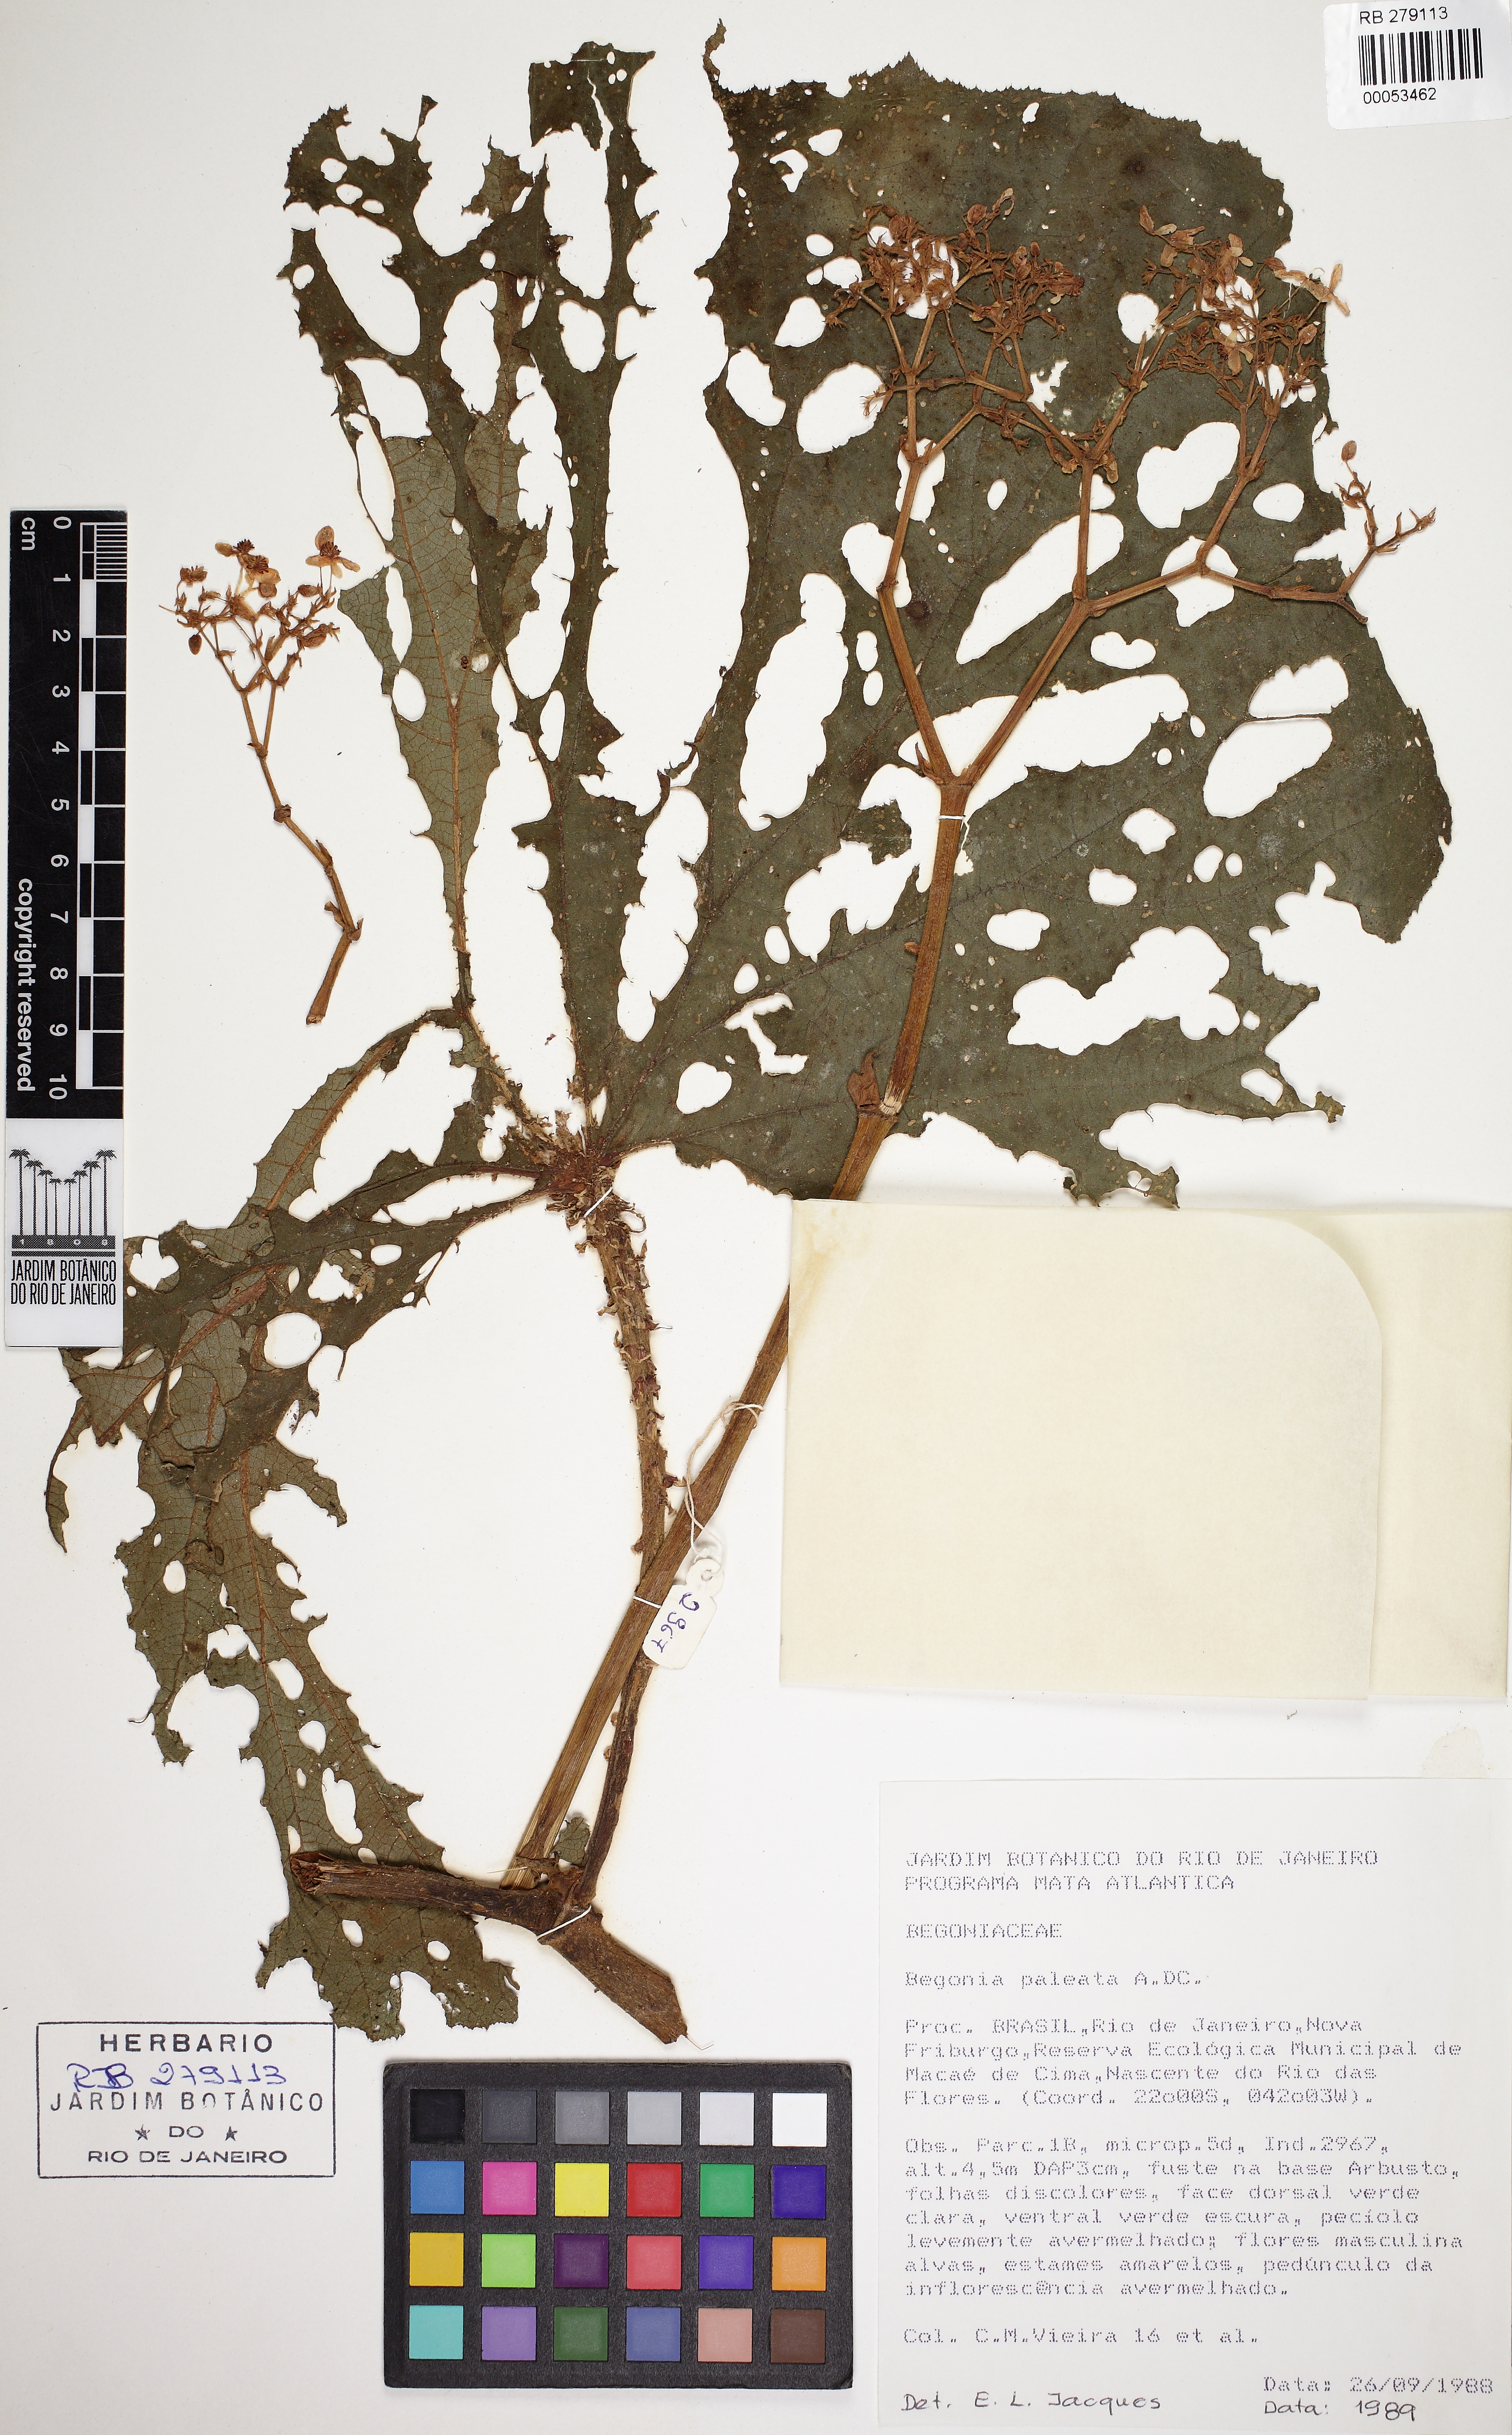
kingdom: Plantae
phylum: Tracheophyta
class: Magnoliopsida
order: Cucurbitales
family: Begoniaceae
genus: Begonia
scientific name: Begonia paleata
